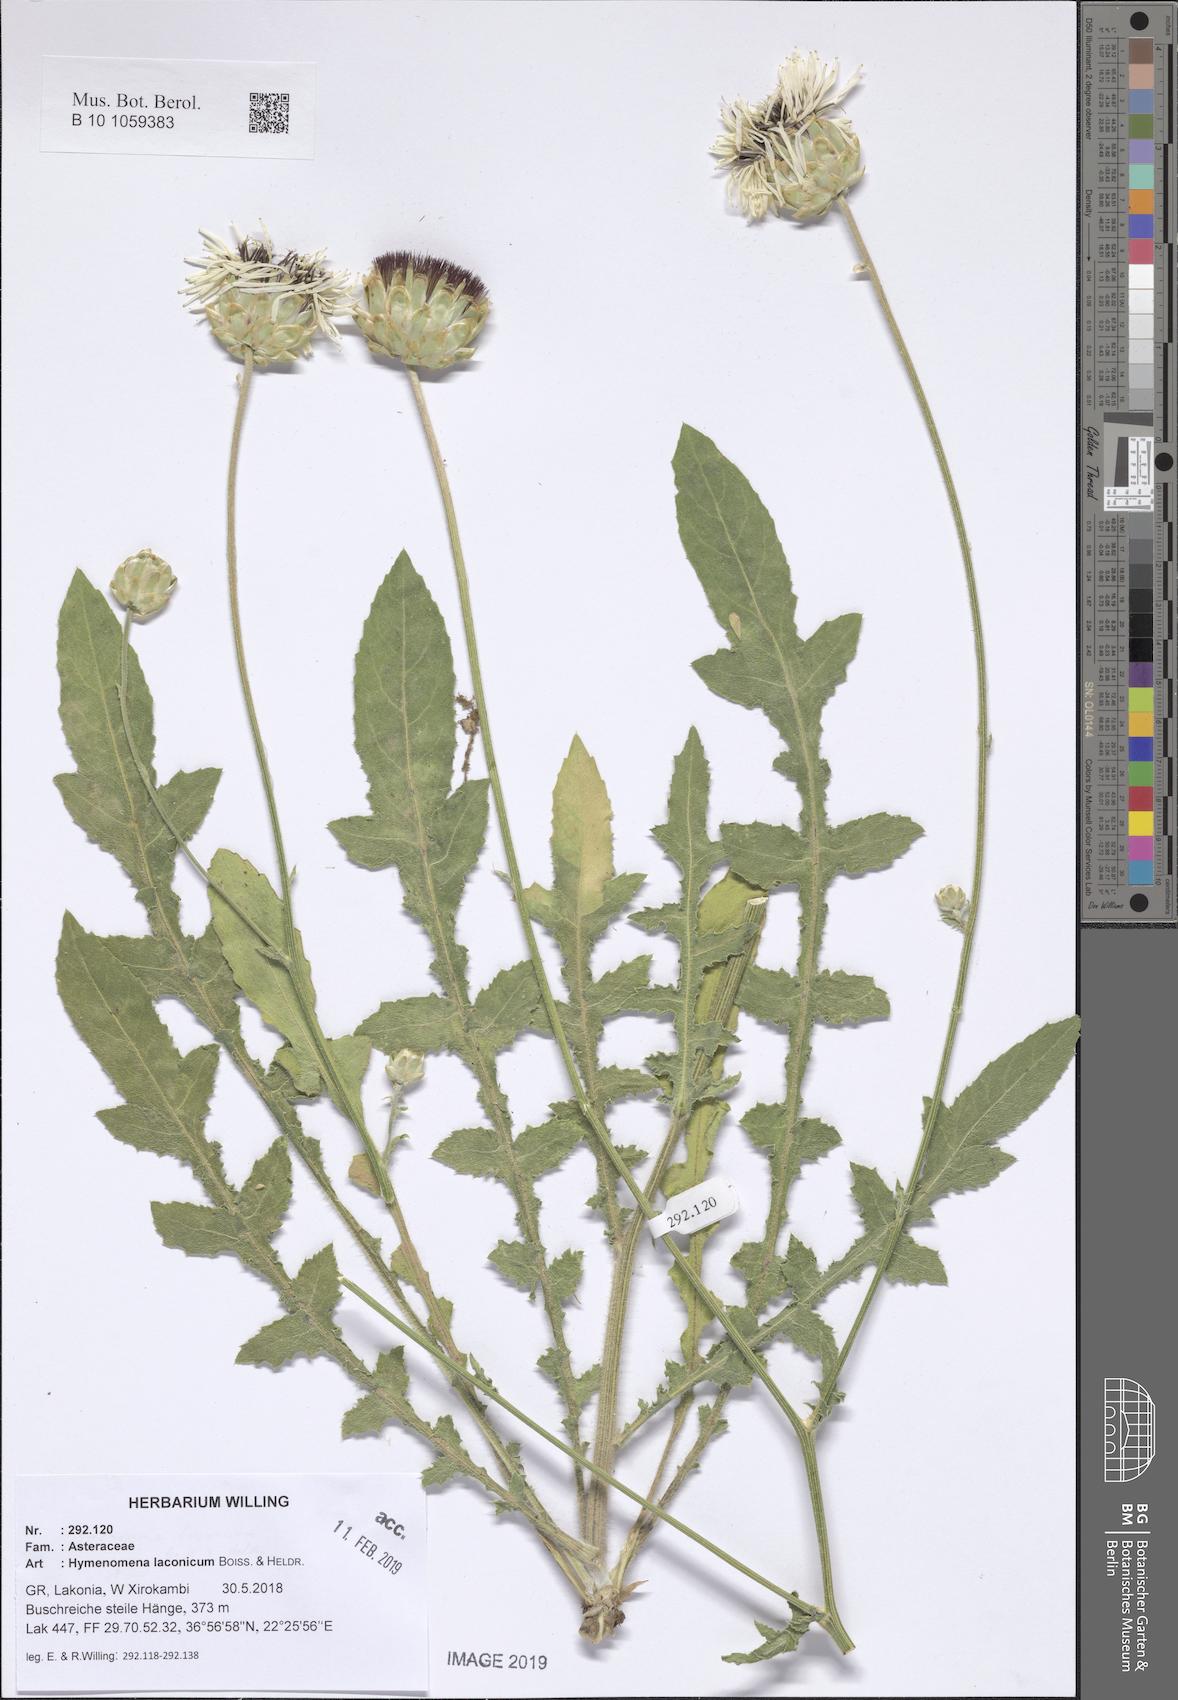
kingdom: Plantae
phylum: Tracheophyta
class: Magnoliopsida
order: Asterales
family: Asteraceae
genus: Hymenonema
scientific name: Hymenonema laconicum
